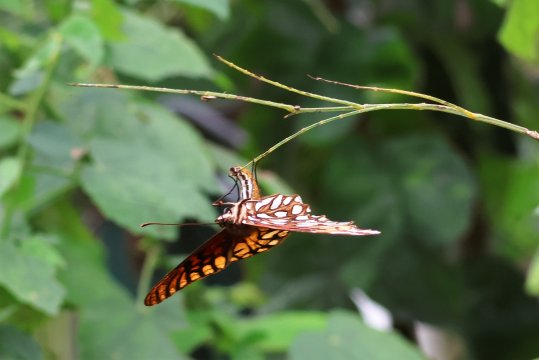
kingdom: Animalia
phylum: Arthropoda
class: Insecta
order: Lepidoptera
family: Nymphalidae
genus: Dione
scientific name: Dione moneta
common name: Mexican Silverspot
